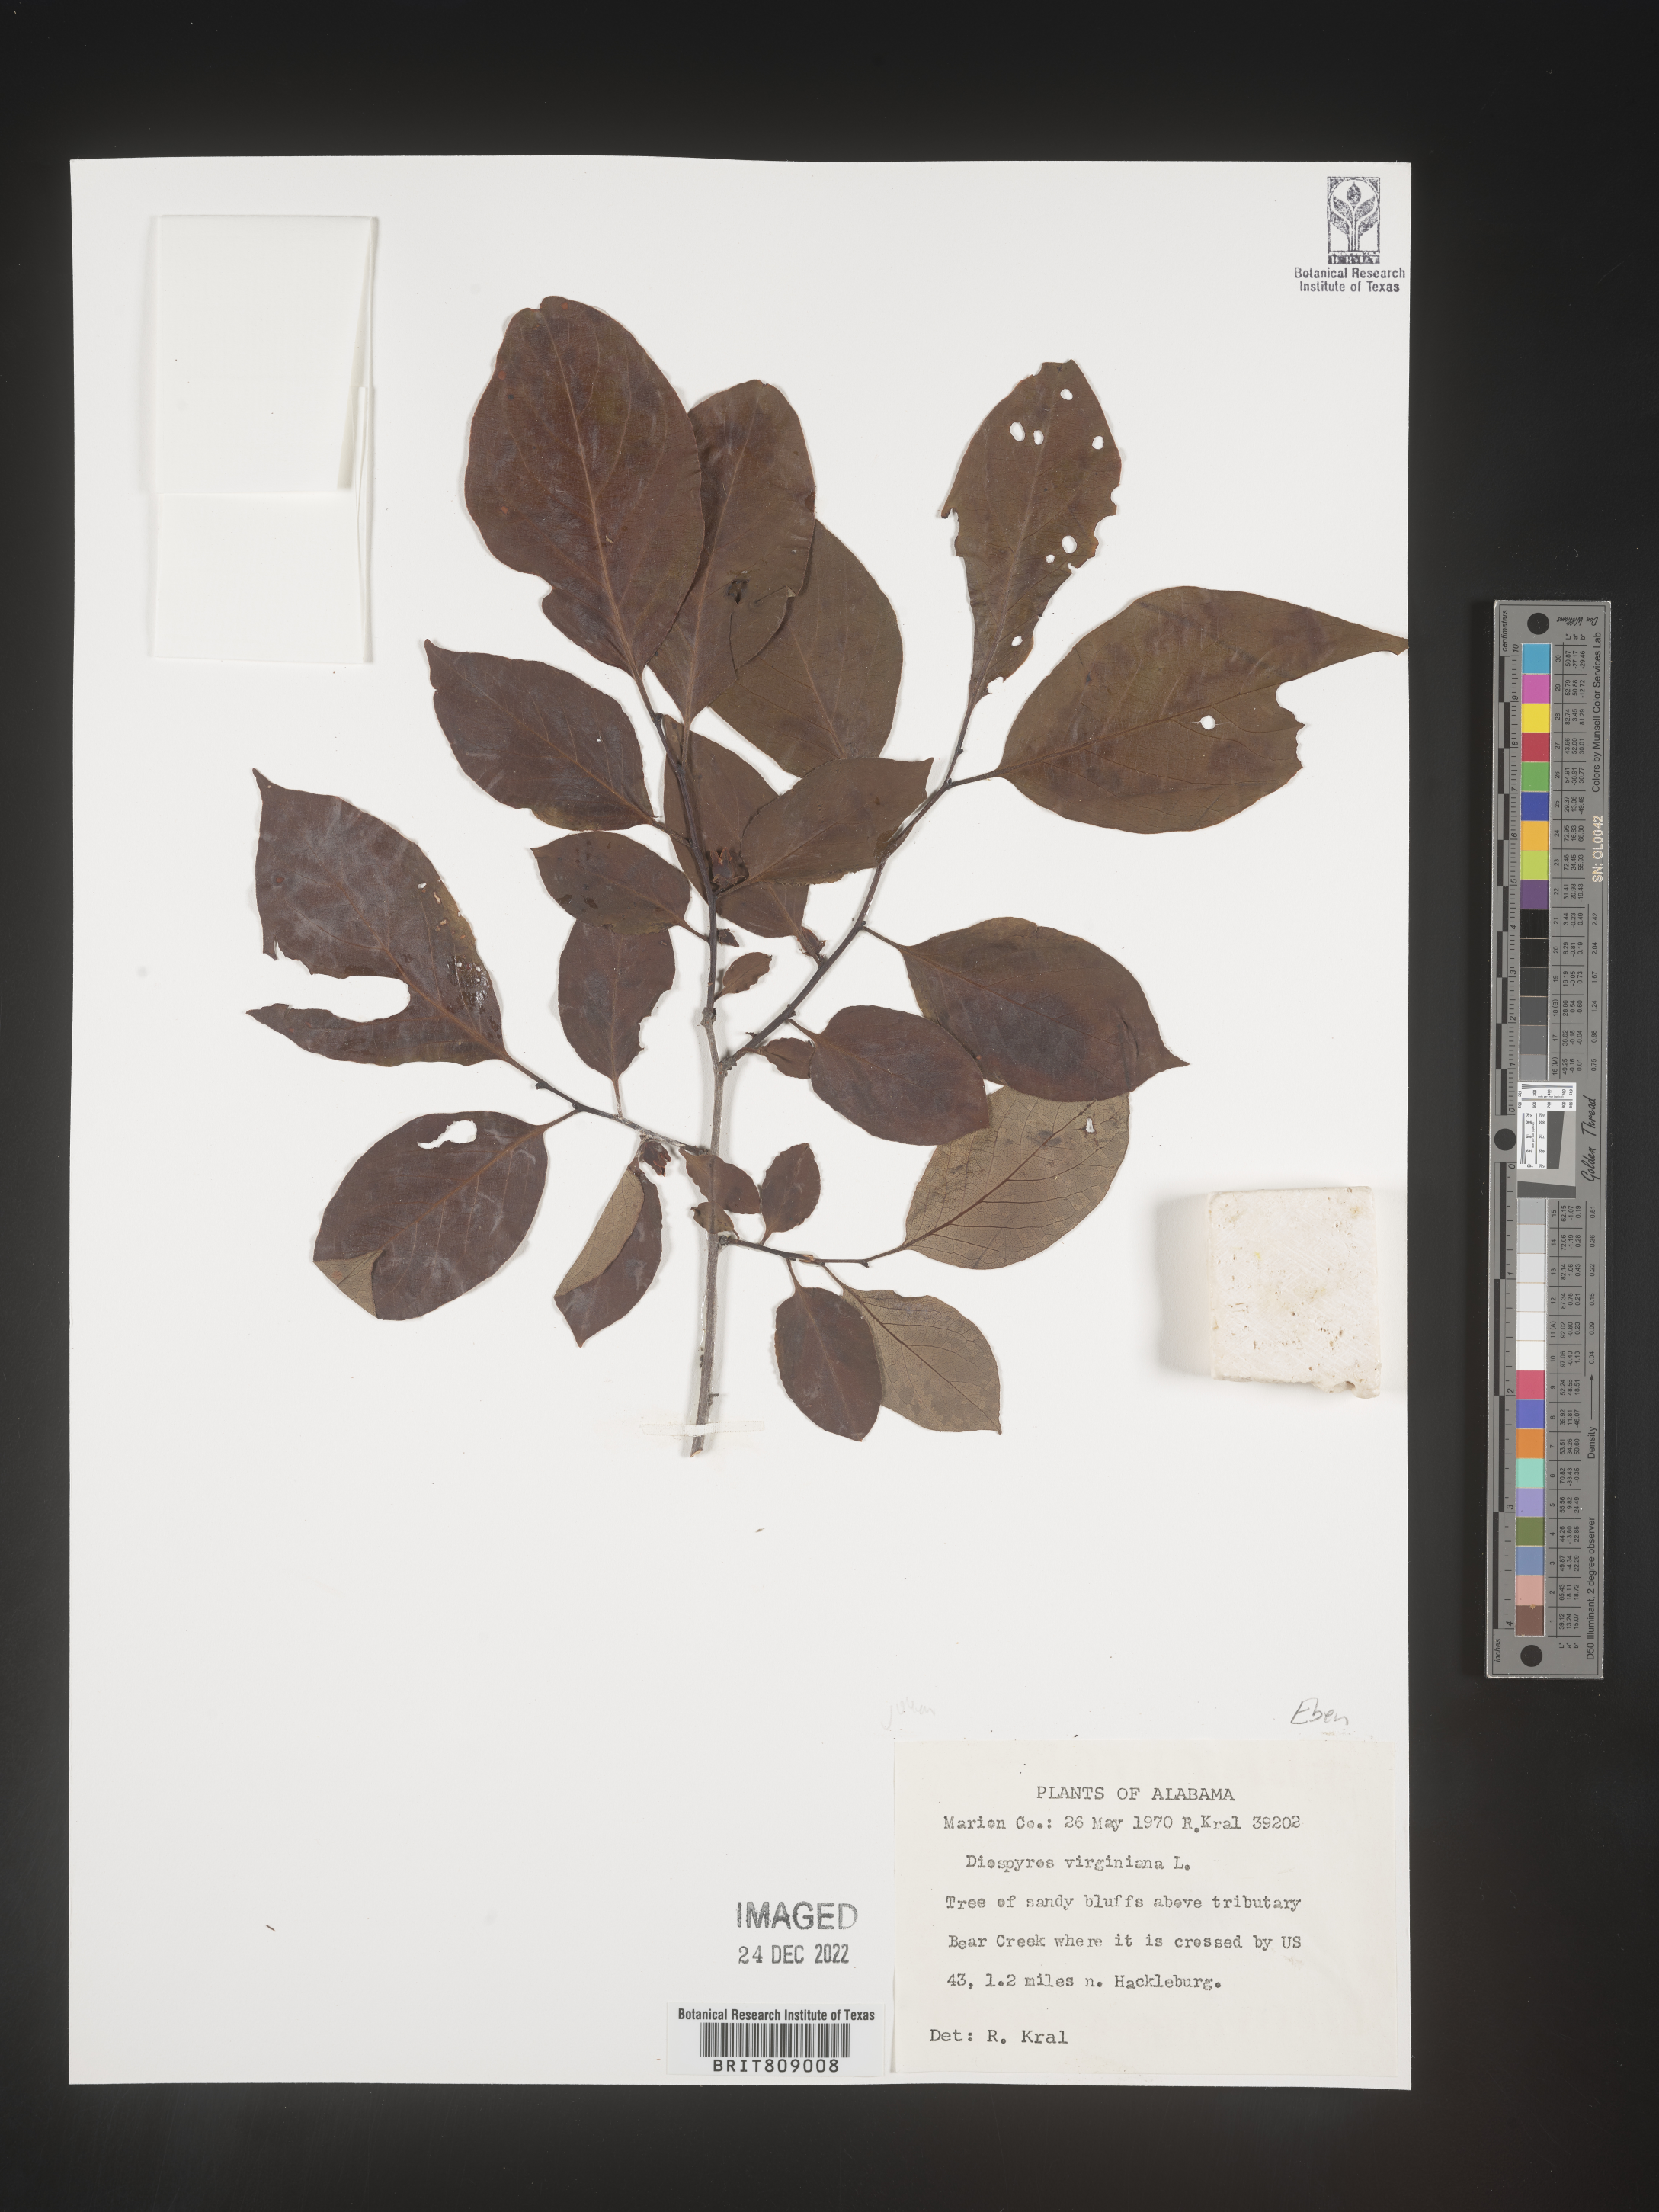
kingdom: Plantae
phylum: Tracheophyta
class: Magnoliopsida
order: Ericales
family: Ebenaceae
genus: Diospyros
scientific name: Diospyros virginiana
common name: Persimmon
